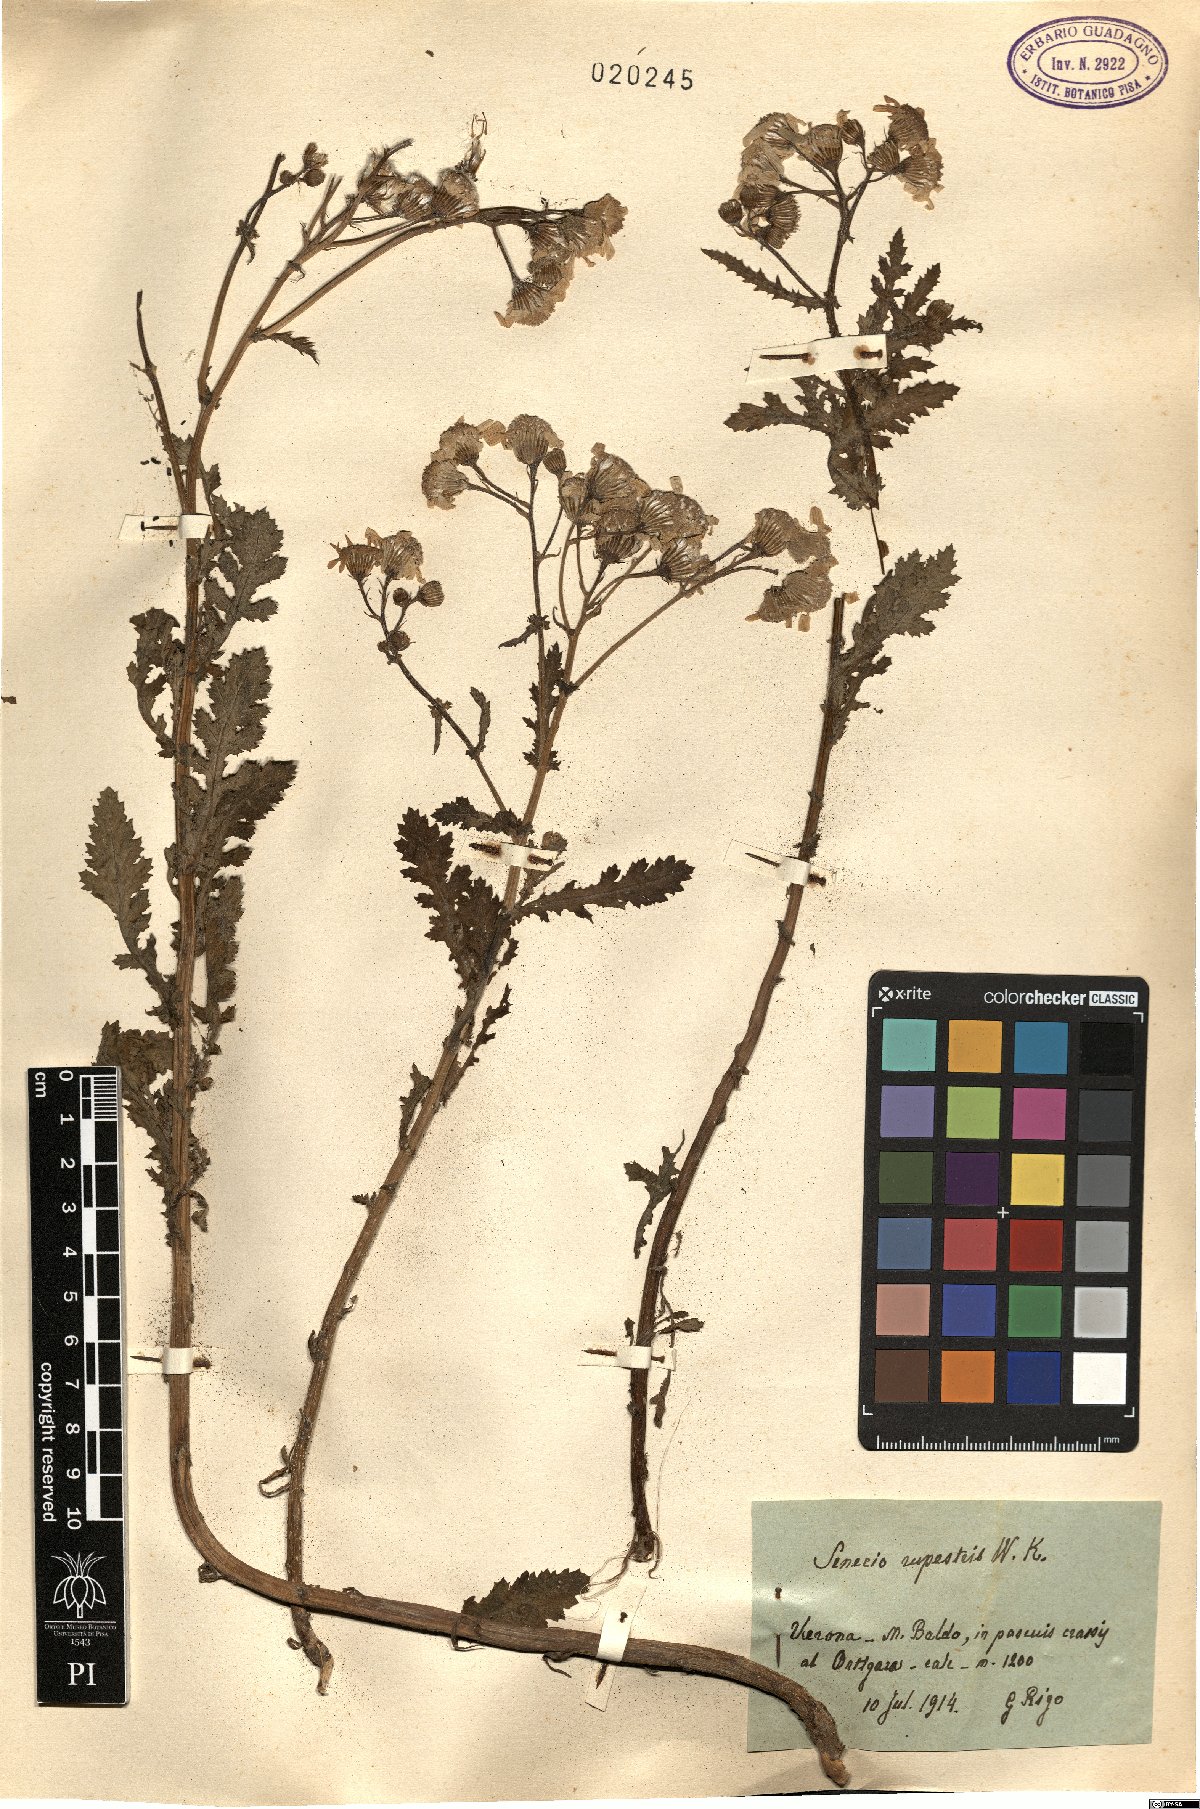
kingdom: Plantae
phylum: Tracheophyta
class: Magnoliopsida
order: Asterales
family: Asteraceae
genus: Senecio
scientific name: Senecio rupestris
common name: Rock ragwort
